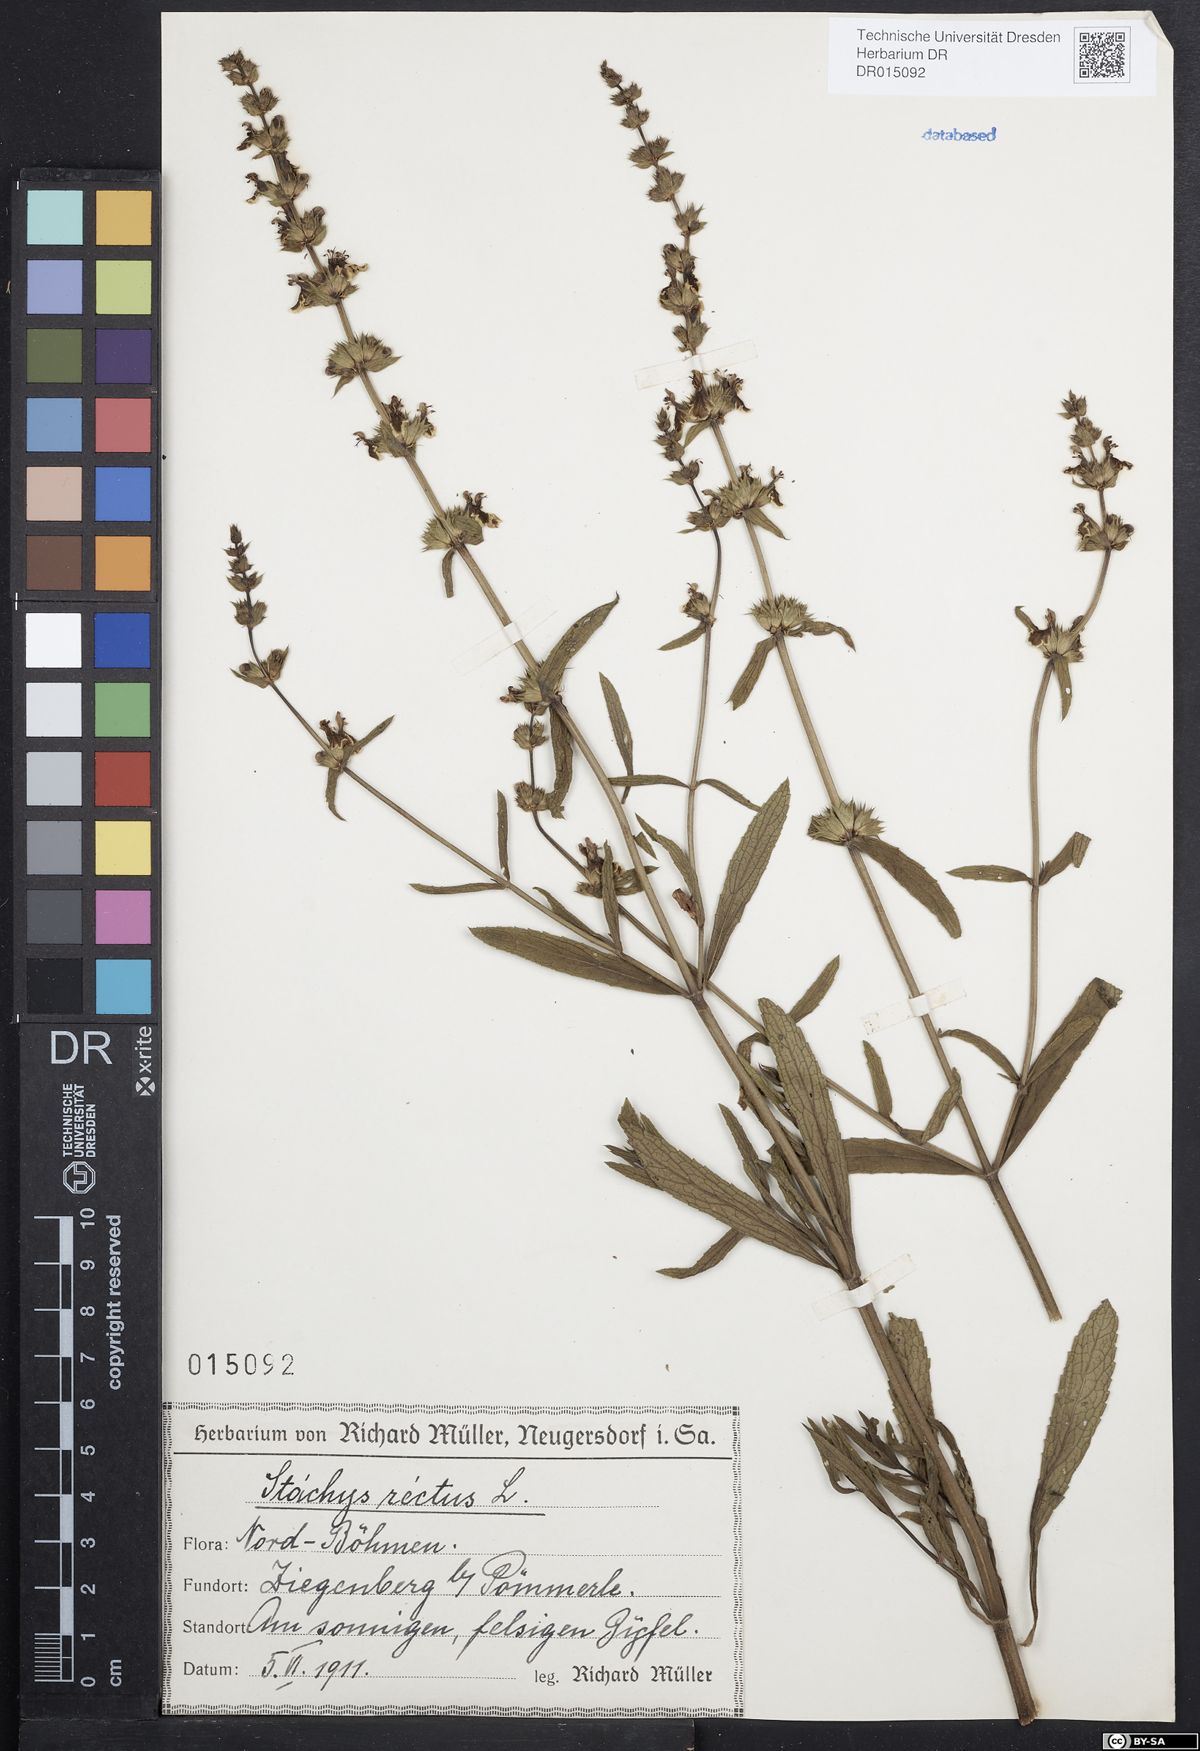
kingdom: Plantae
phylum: Tracheophyta
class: Magnoliopsida
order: Lamiales
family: Lamiaceae
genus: Stachys
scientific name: Stachys recta
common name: Perennial yellow-woundwort
